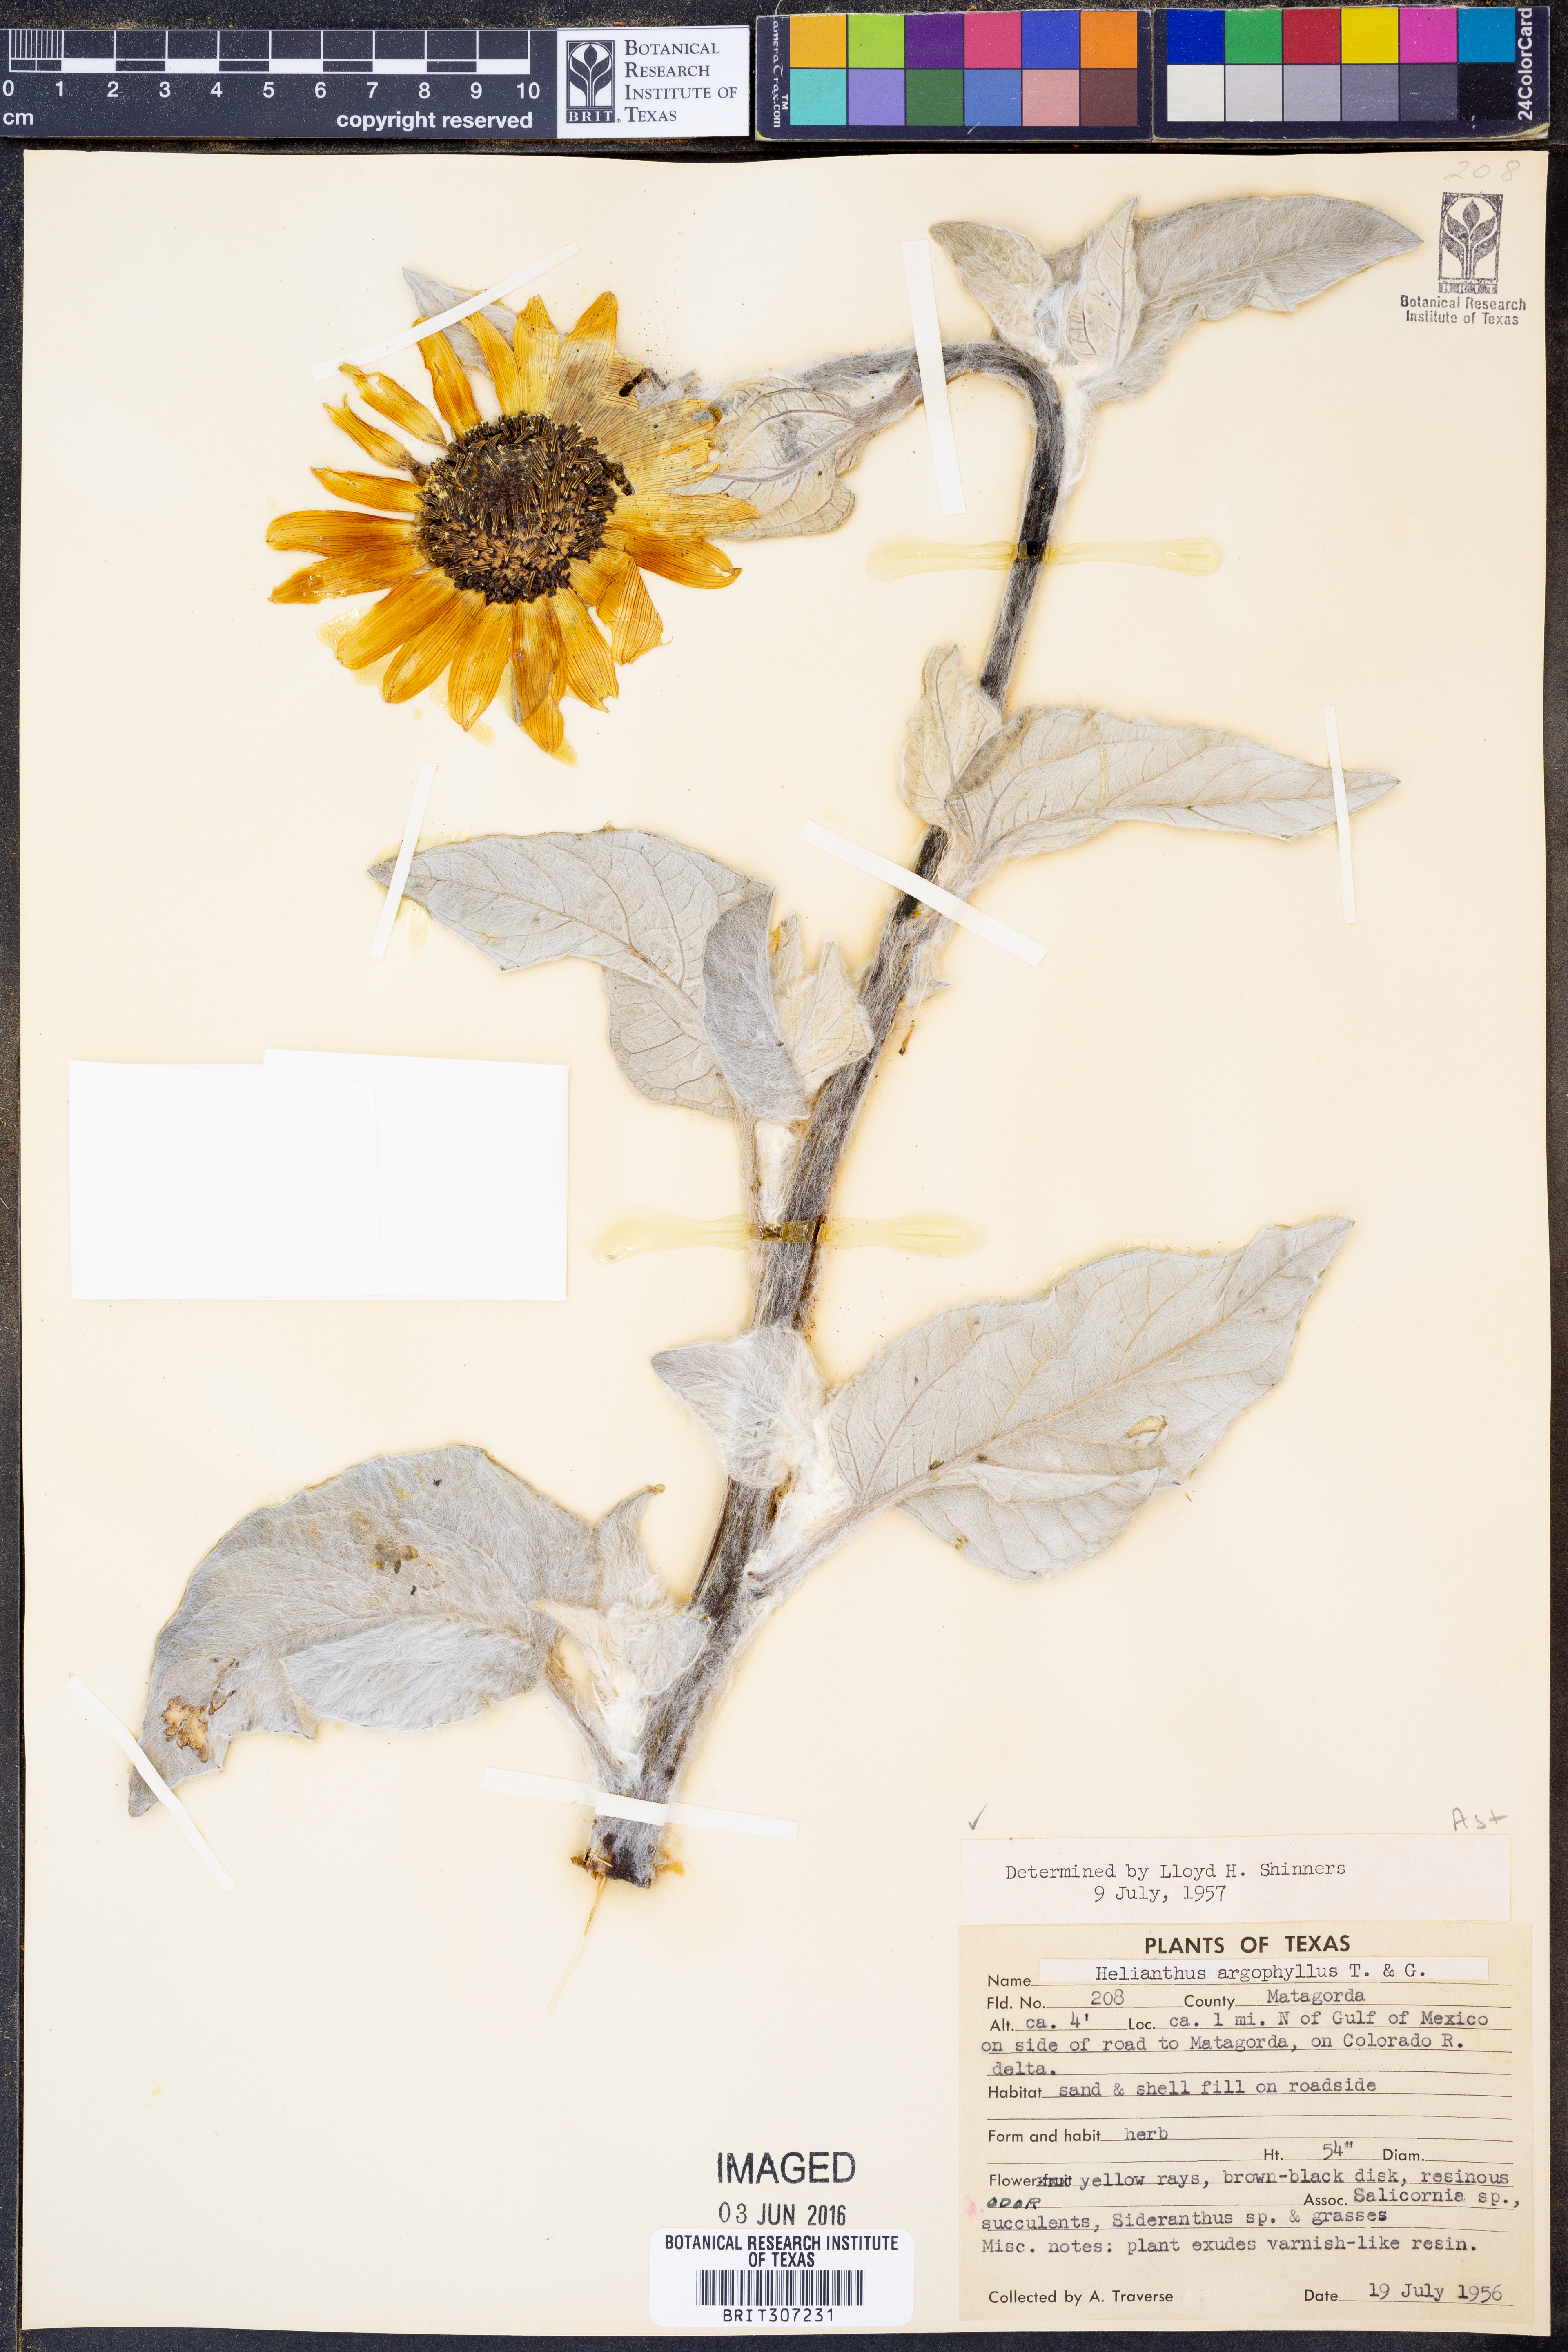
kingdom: Plantae
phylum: Tracheophyta
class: Magnoliopsida
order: Asterales
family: Asteraceae
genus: Helianthus
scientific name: Helianthus argophyllus
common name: Silverleaf sunflower
